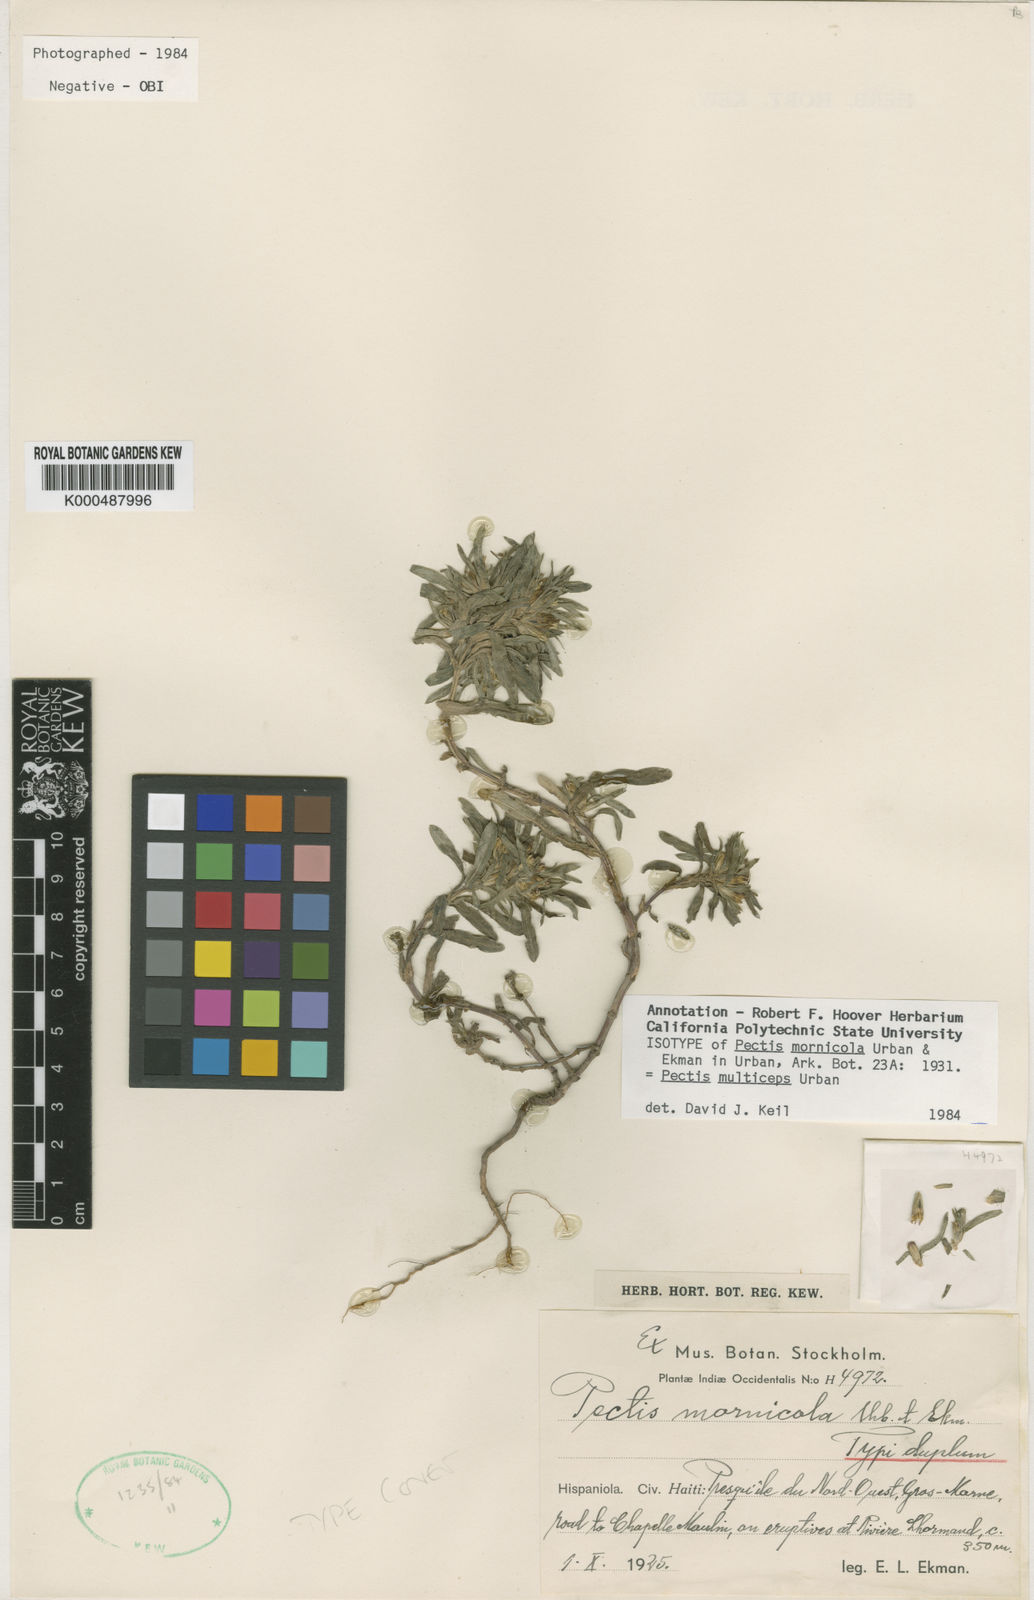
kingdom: Plantae
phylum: Tracheophyta
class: Magnoliopsida
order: Asterales
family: Asteraceae
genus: Pectis
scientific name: Pectis multiceps
